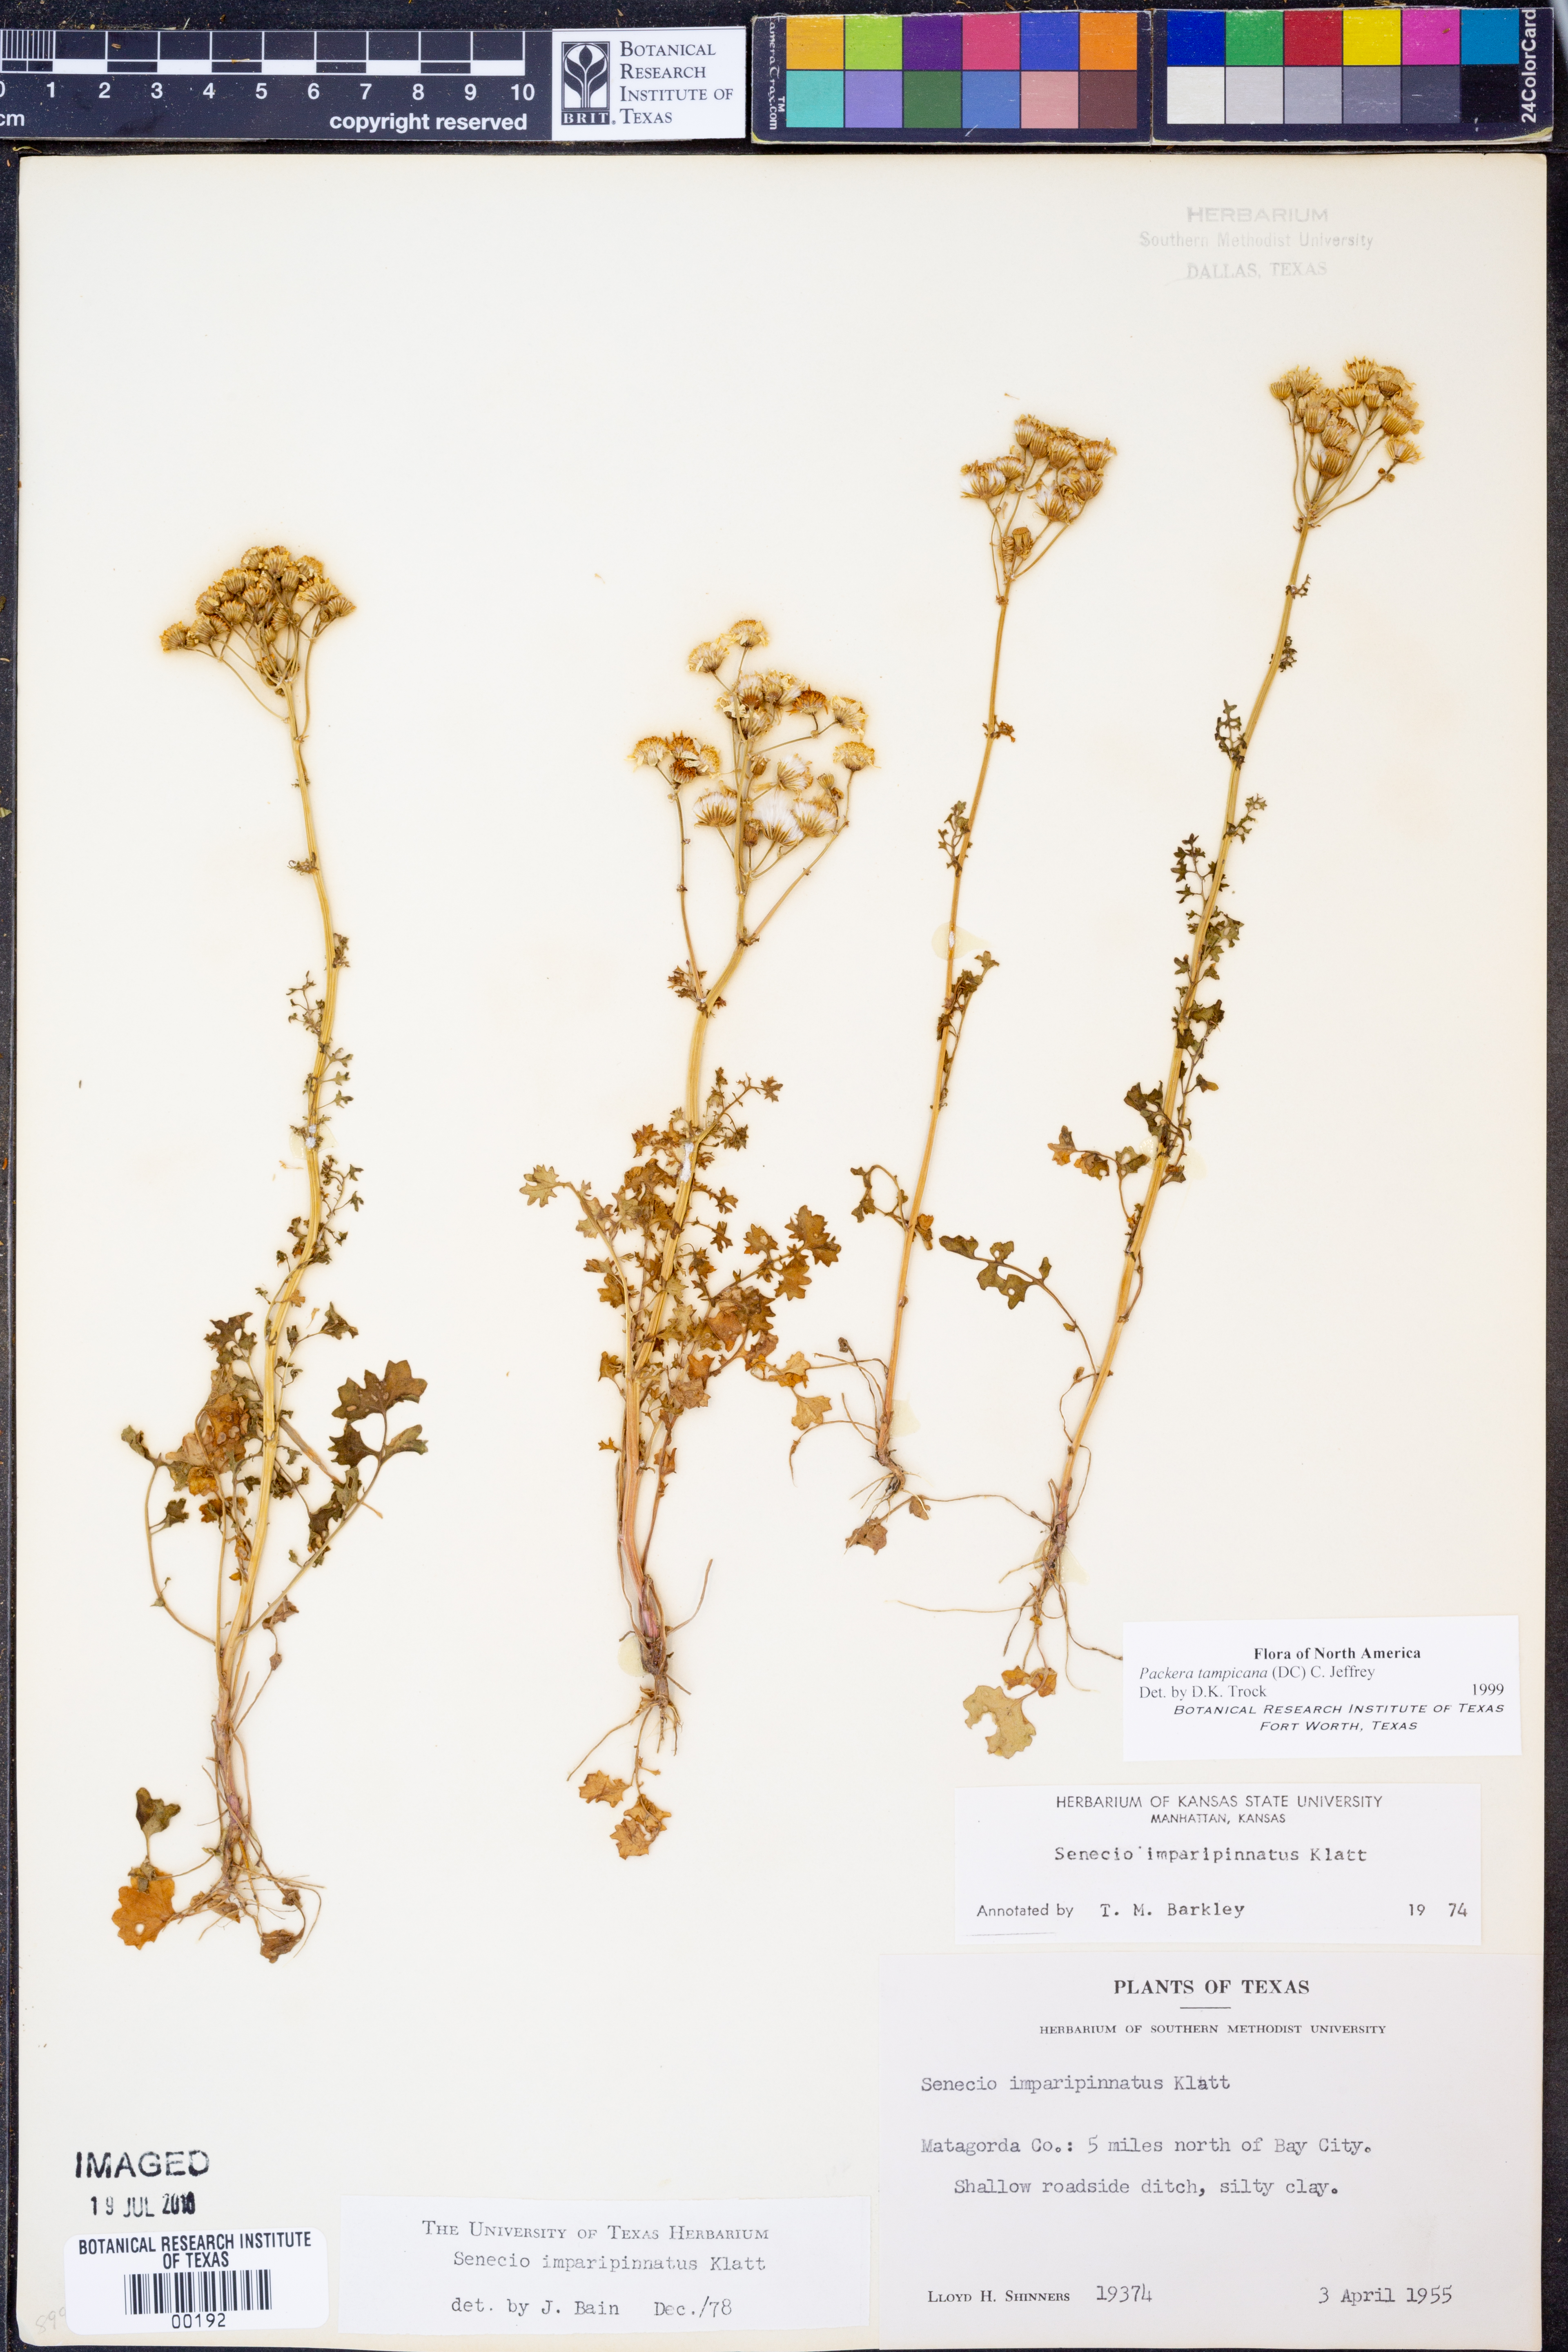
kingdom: Plantae
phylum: Tracheophyta
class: Magnoliopsida
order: Asterales
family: Asteraceae
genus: Packera
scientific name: Packera tampicana
